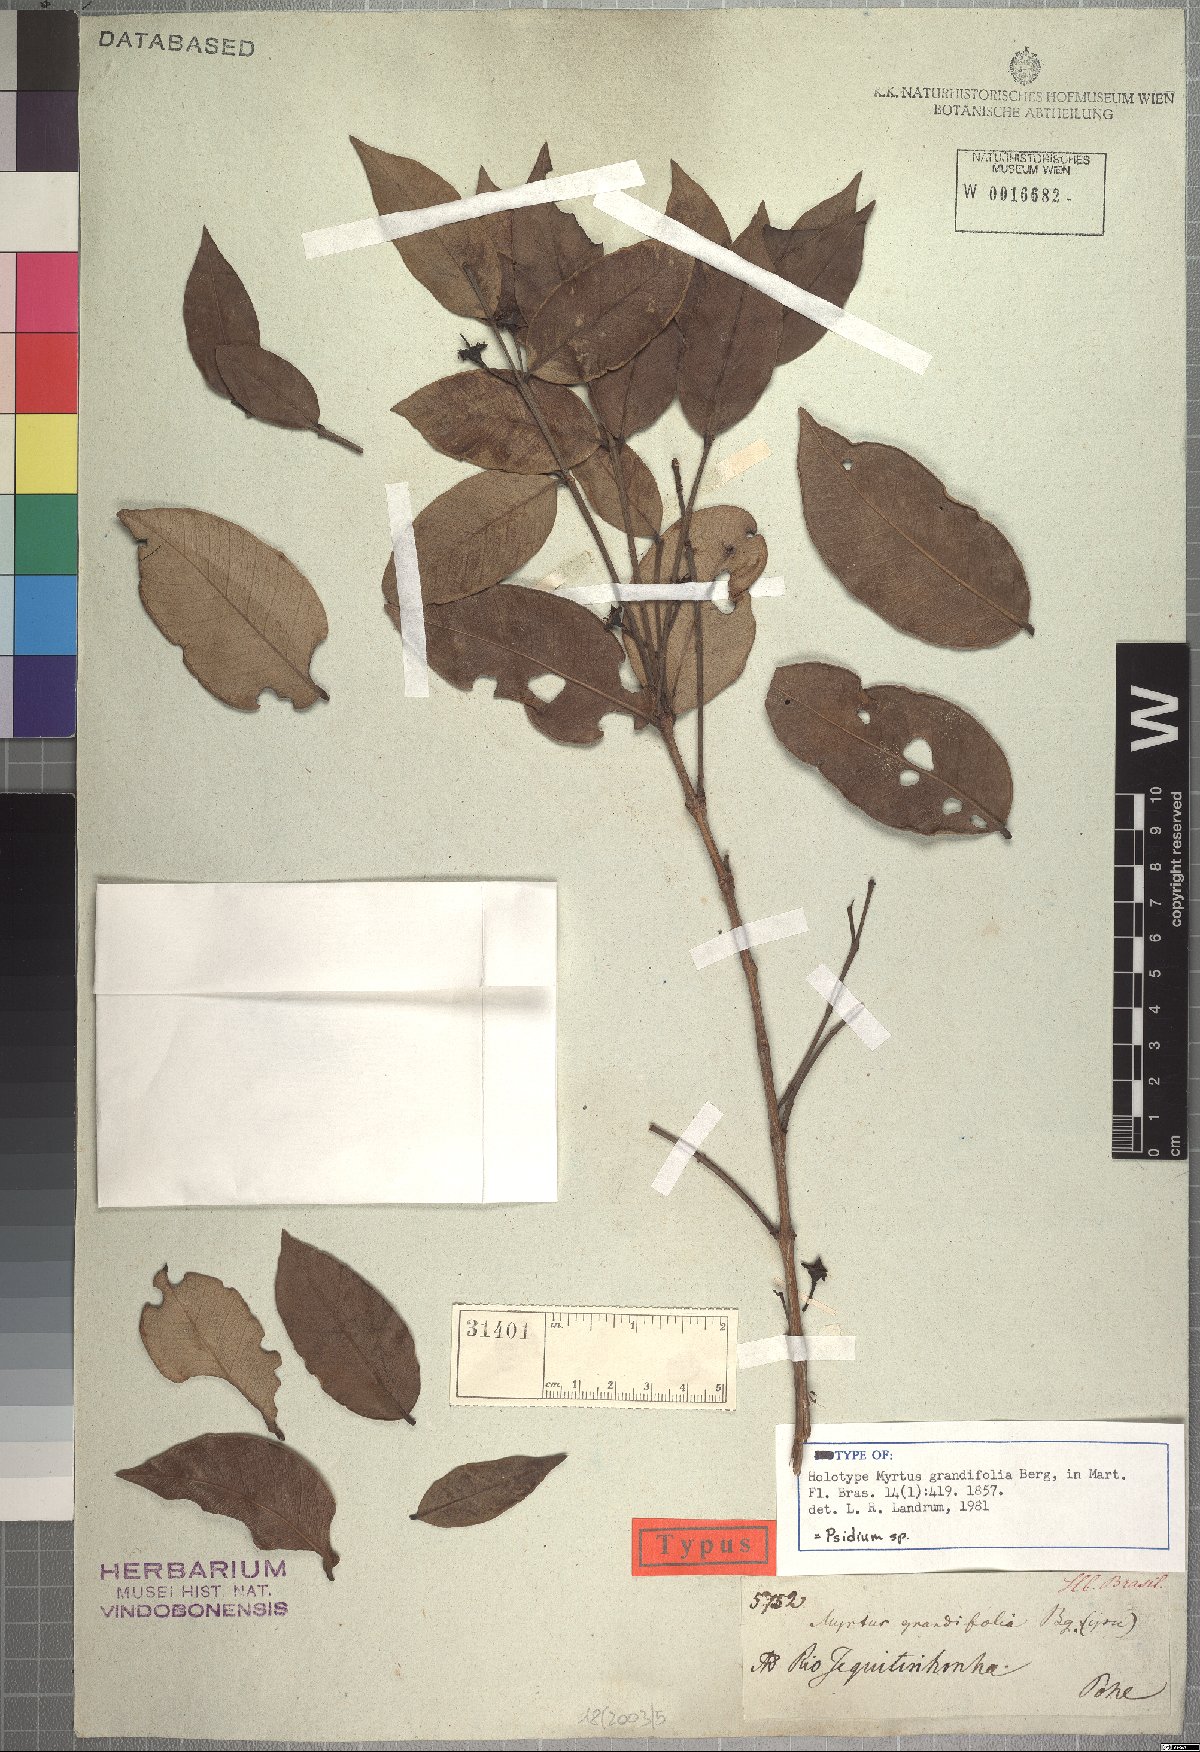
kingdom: Plantae
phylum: Tracheophyta
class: Magnoliopsida
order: Myrtales
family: Myrtaceae
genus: Psidium
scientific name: Psidium firmum
